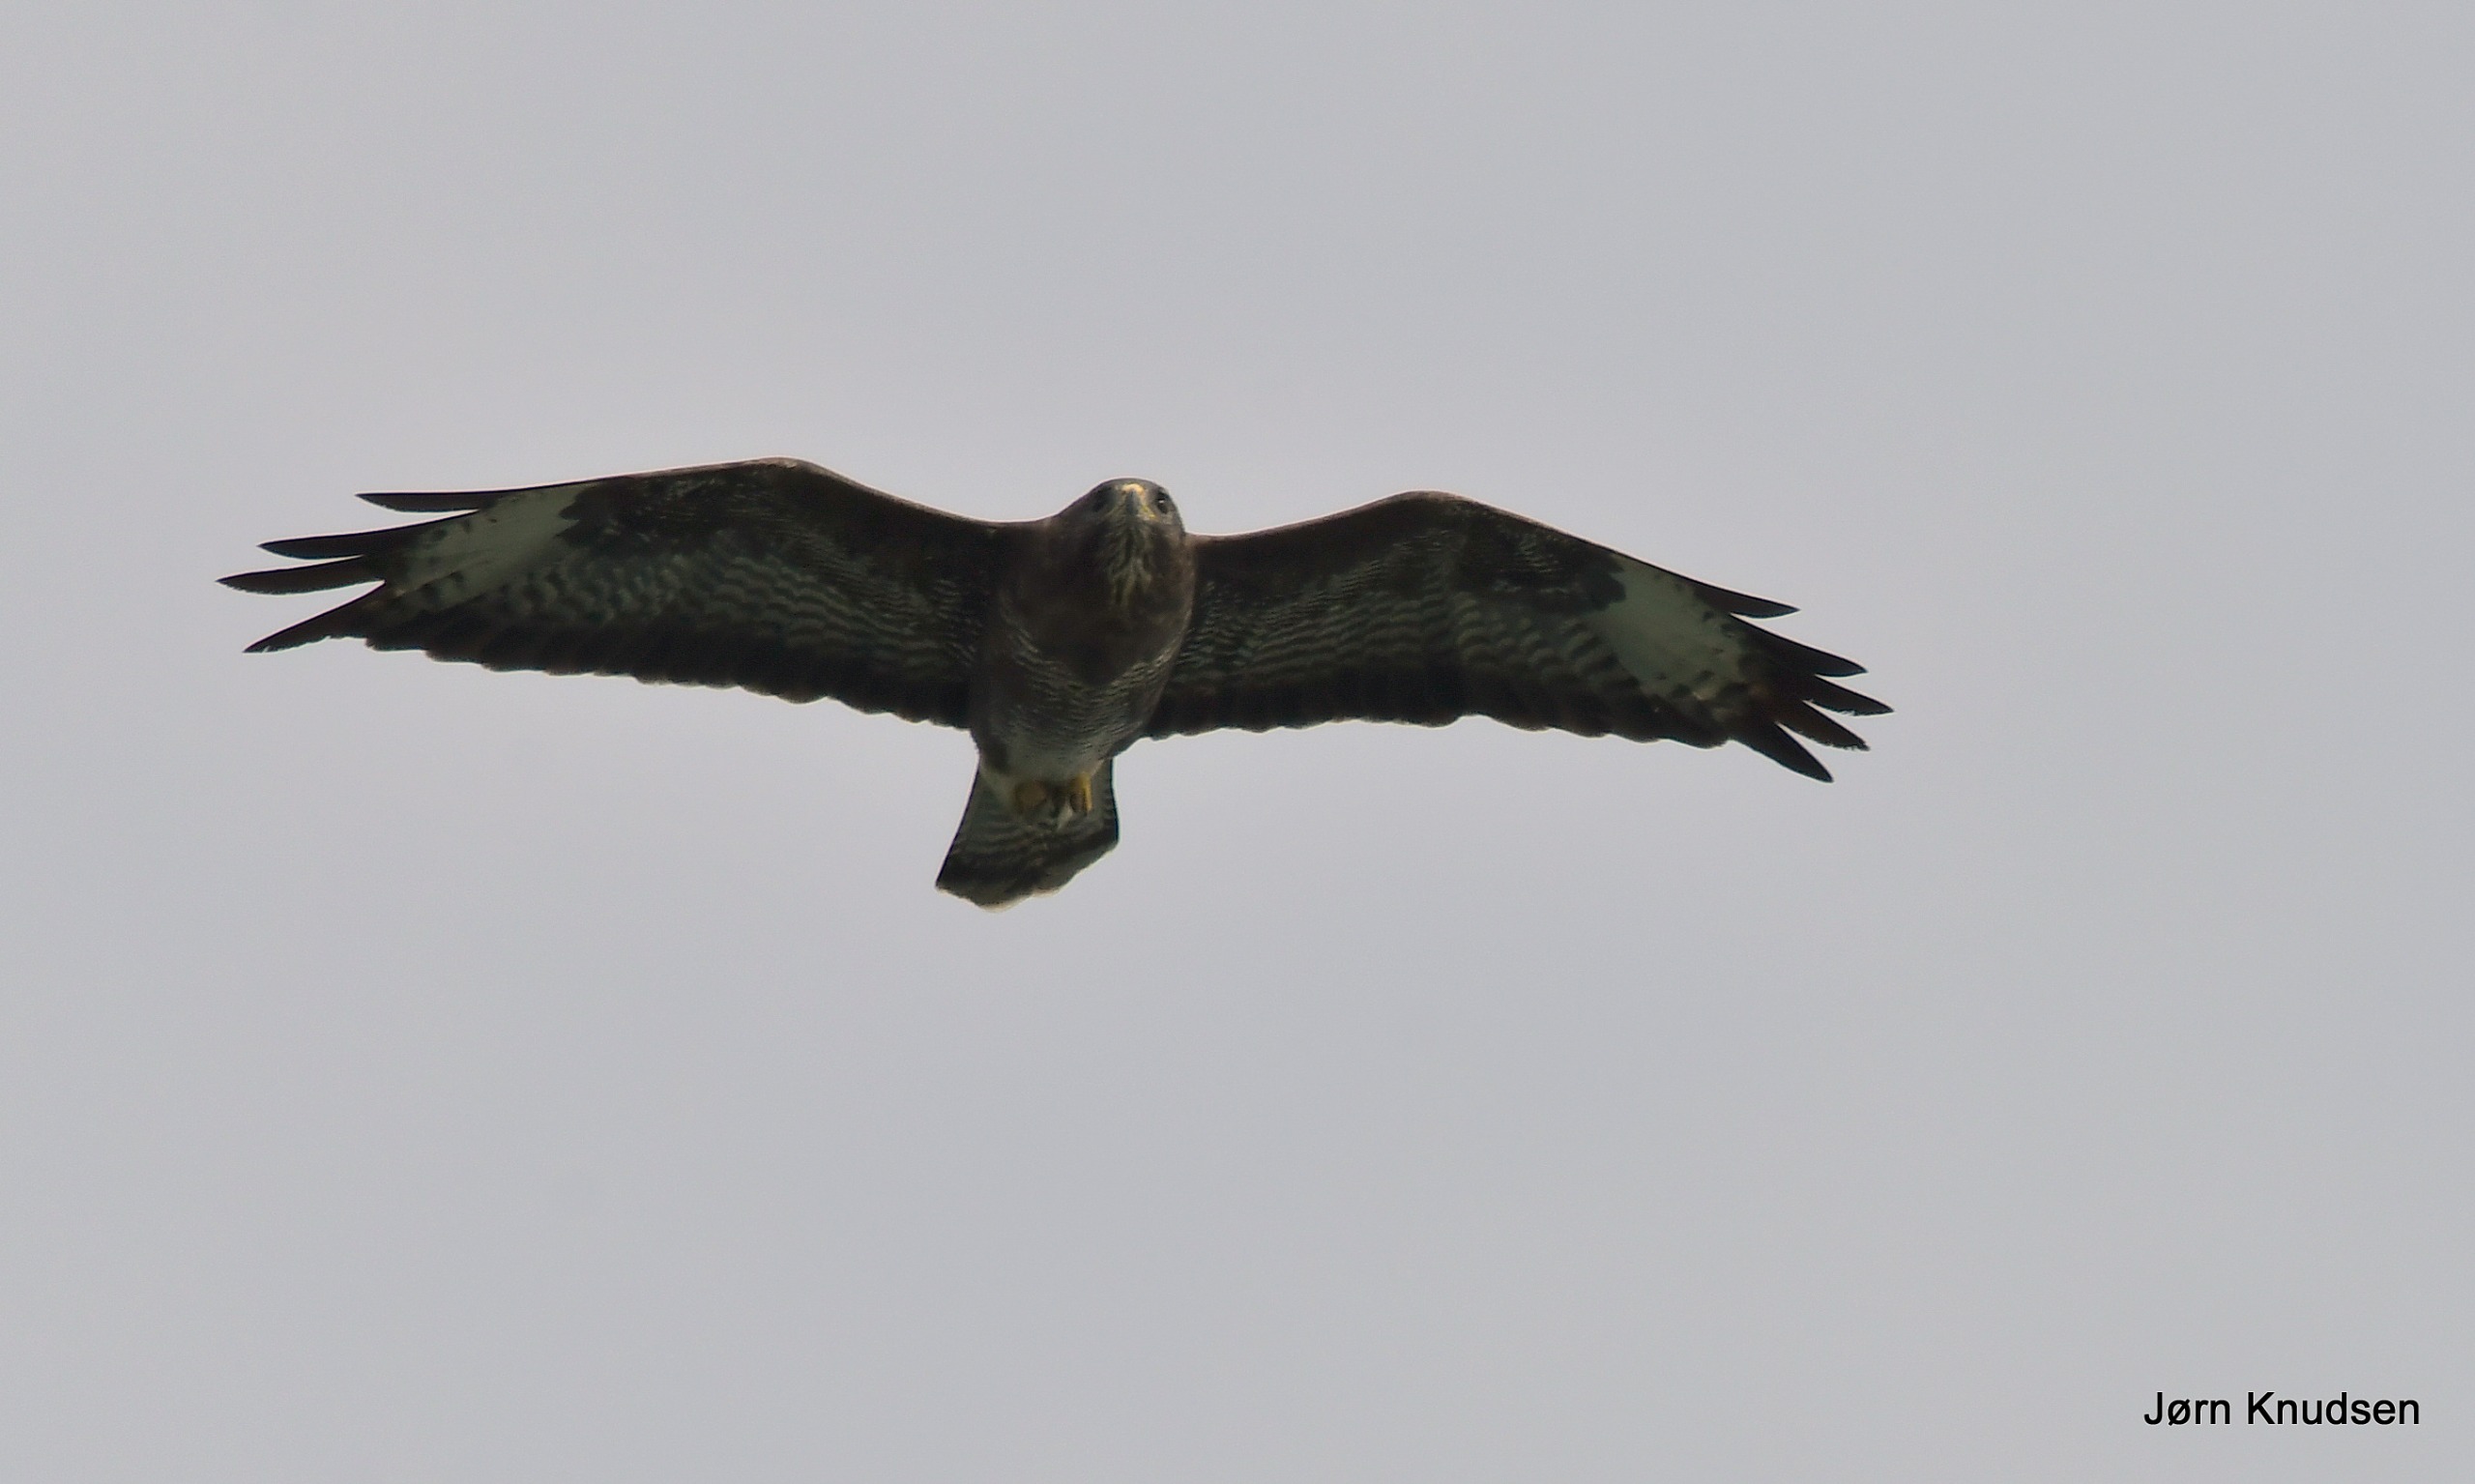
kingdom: Animalia
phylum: Chordata
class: Aves
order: Accipitriformes
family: Accipitridae
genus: Buteo
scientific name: Buteo buteo
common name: Musvåge
